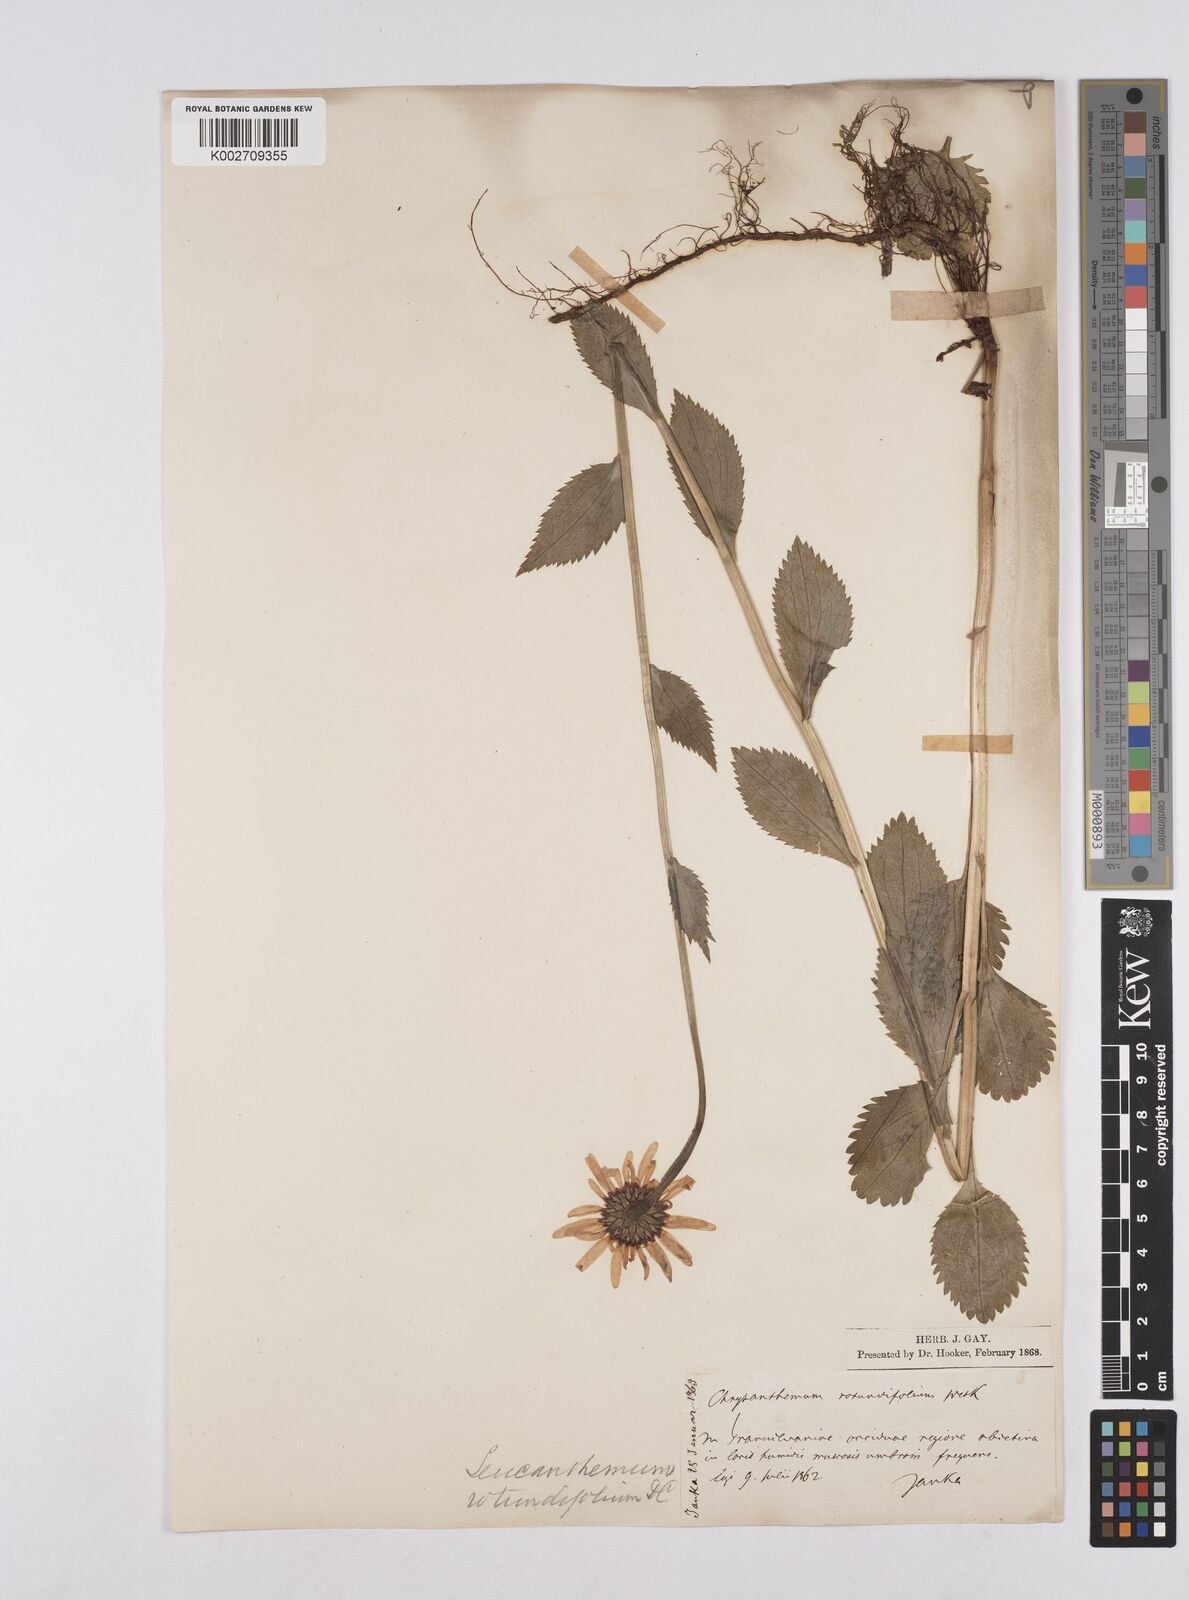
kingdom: Plantae
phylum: Tracheophyta
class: Magnoliopsida
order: Asterales
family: Asteraceae
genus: Leucanthemum
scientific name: Leucanthemum rotundifolium
